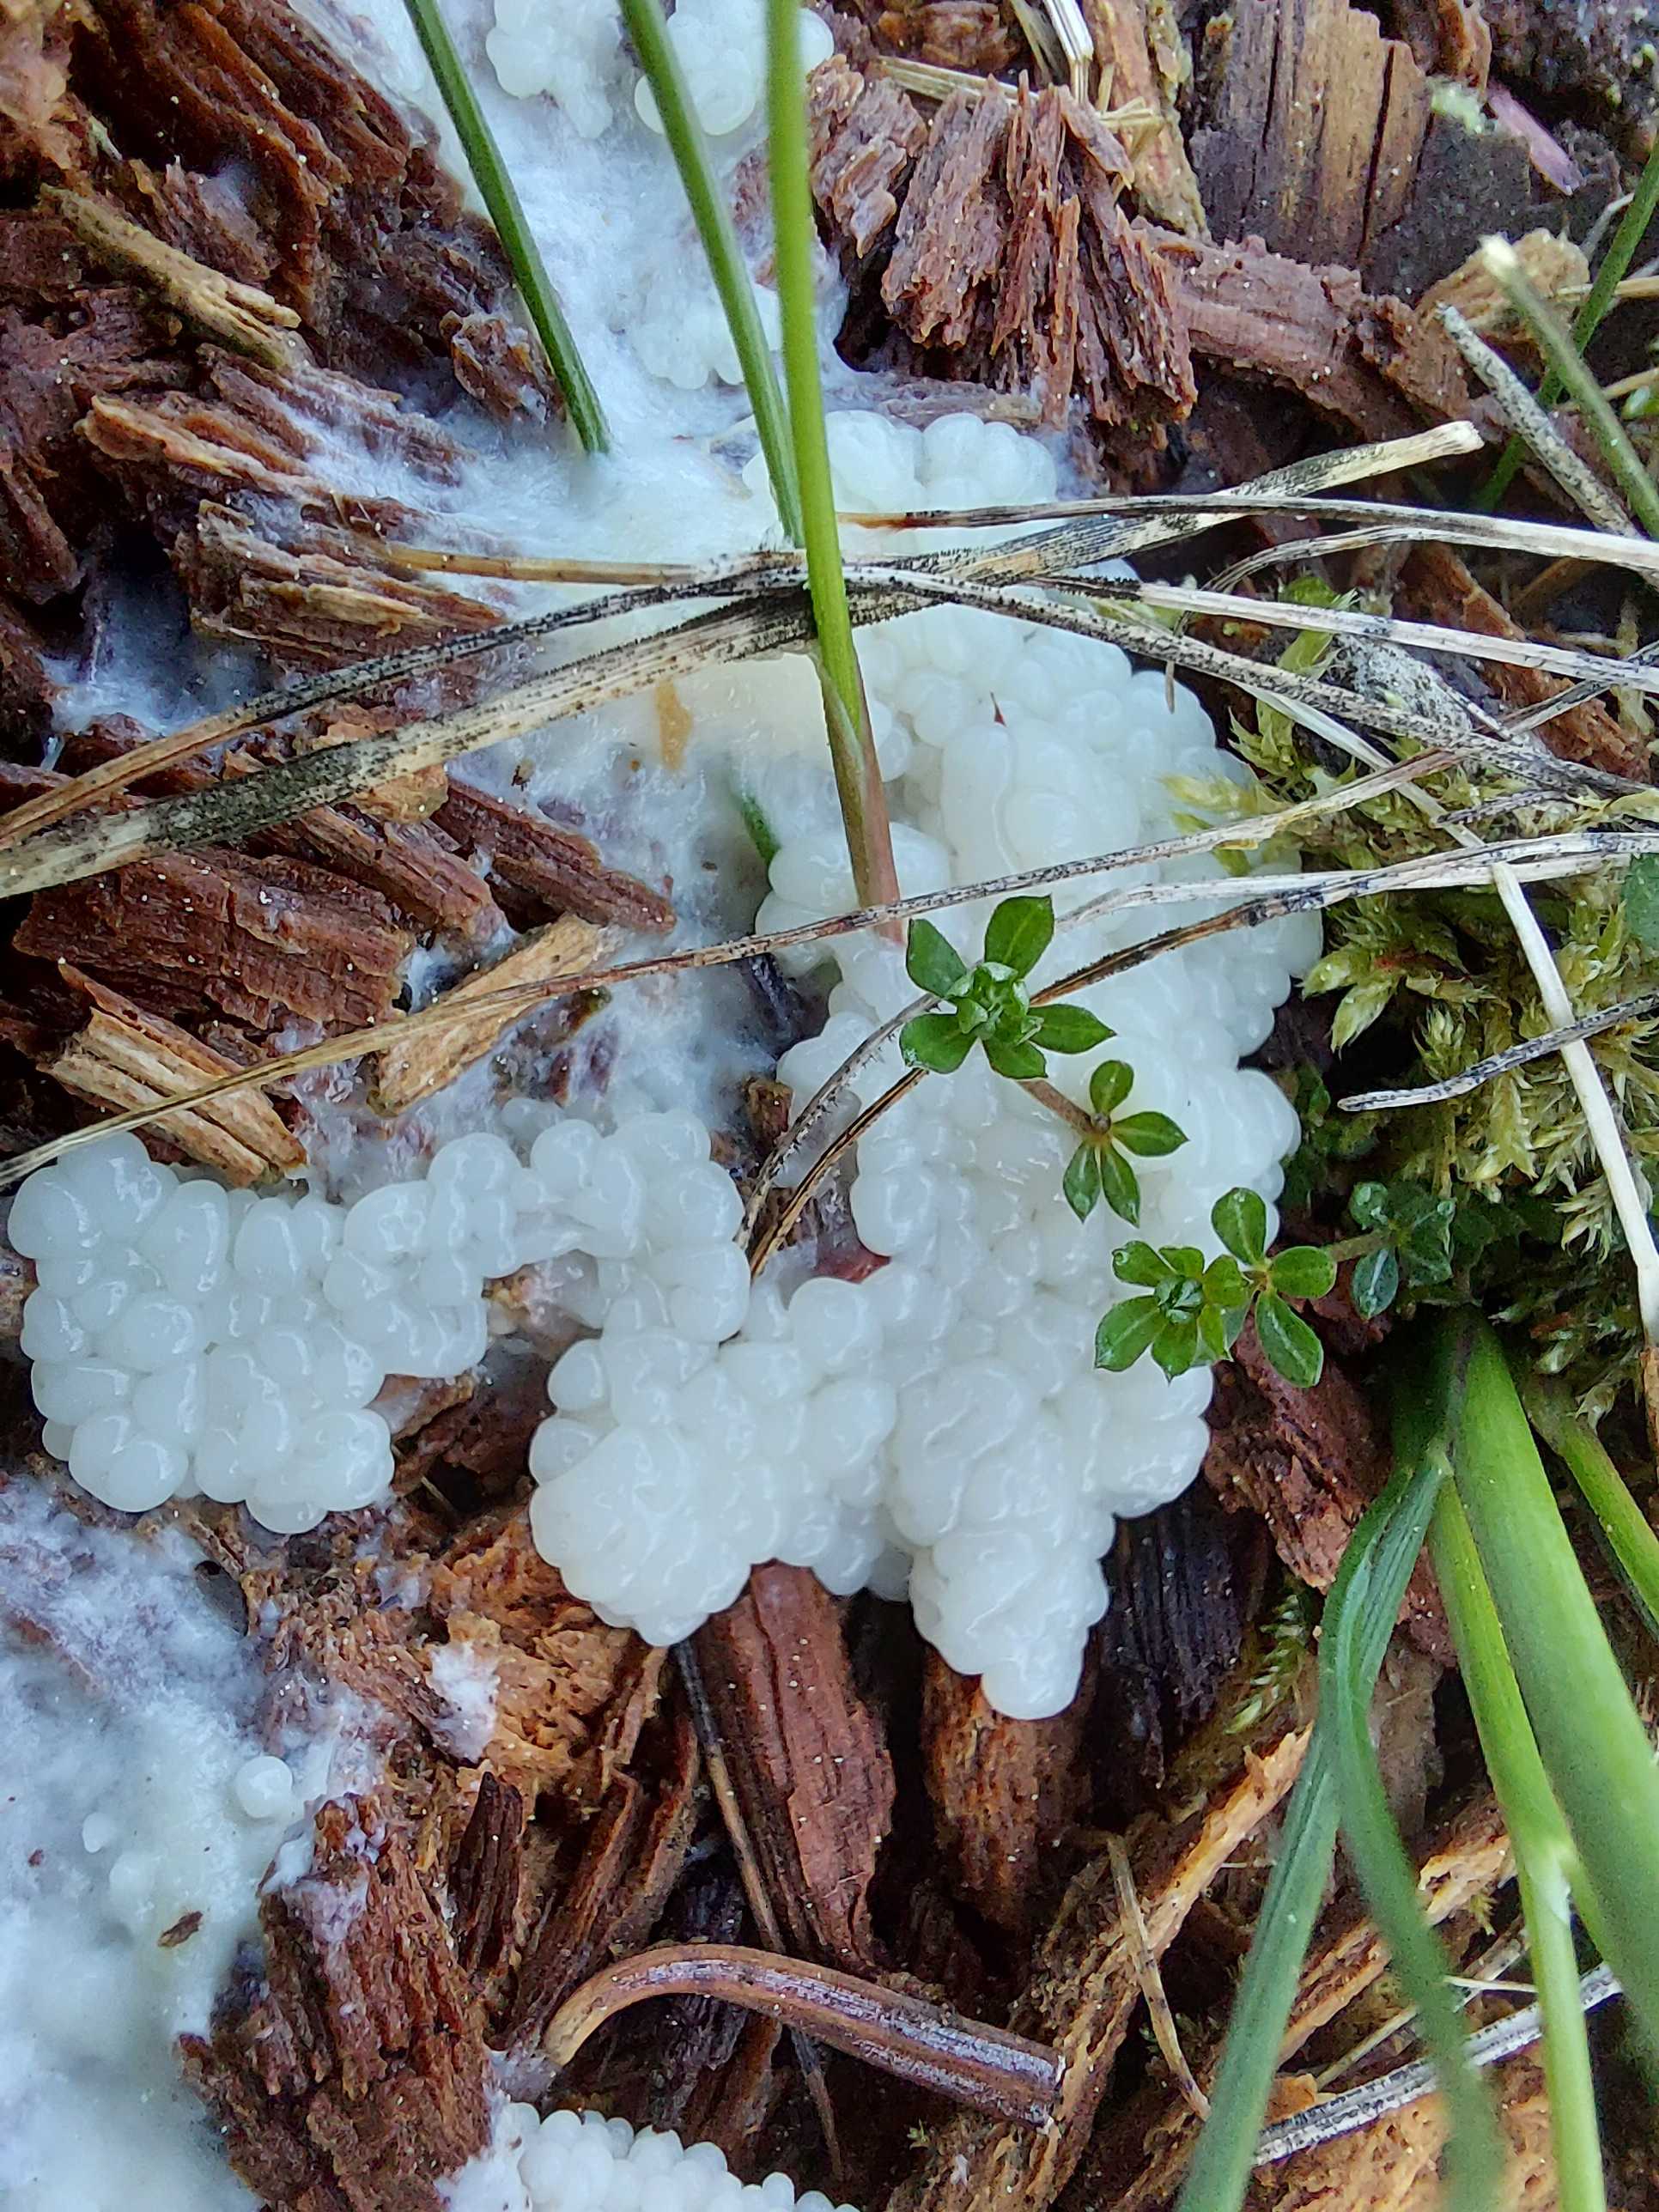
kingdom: Protozoa
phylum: Mycetozoa
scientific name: Mycetozoa
